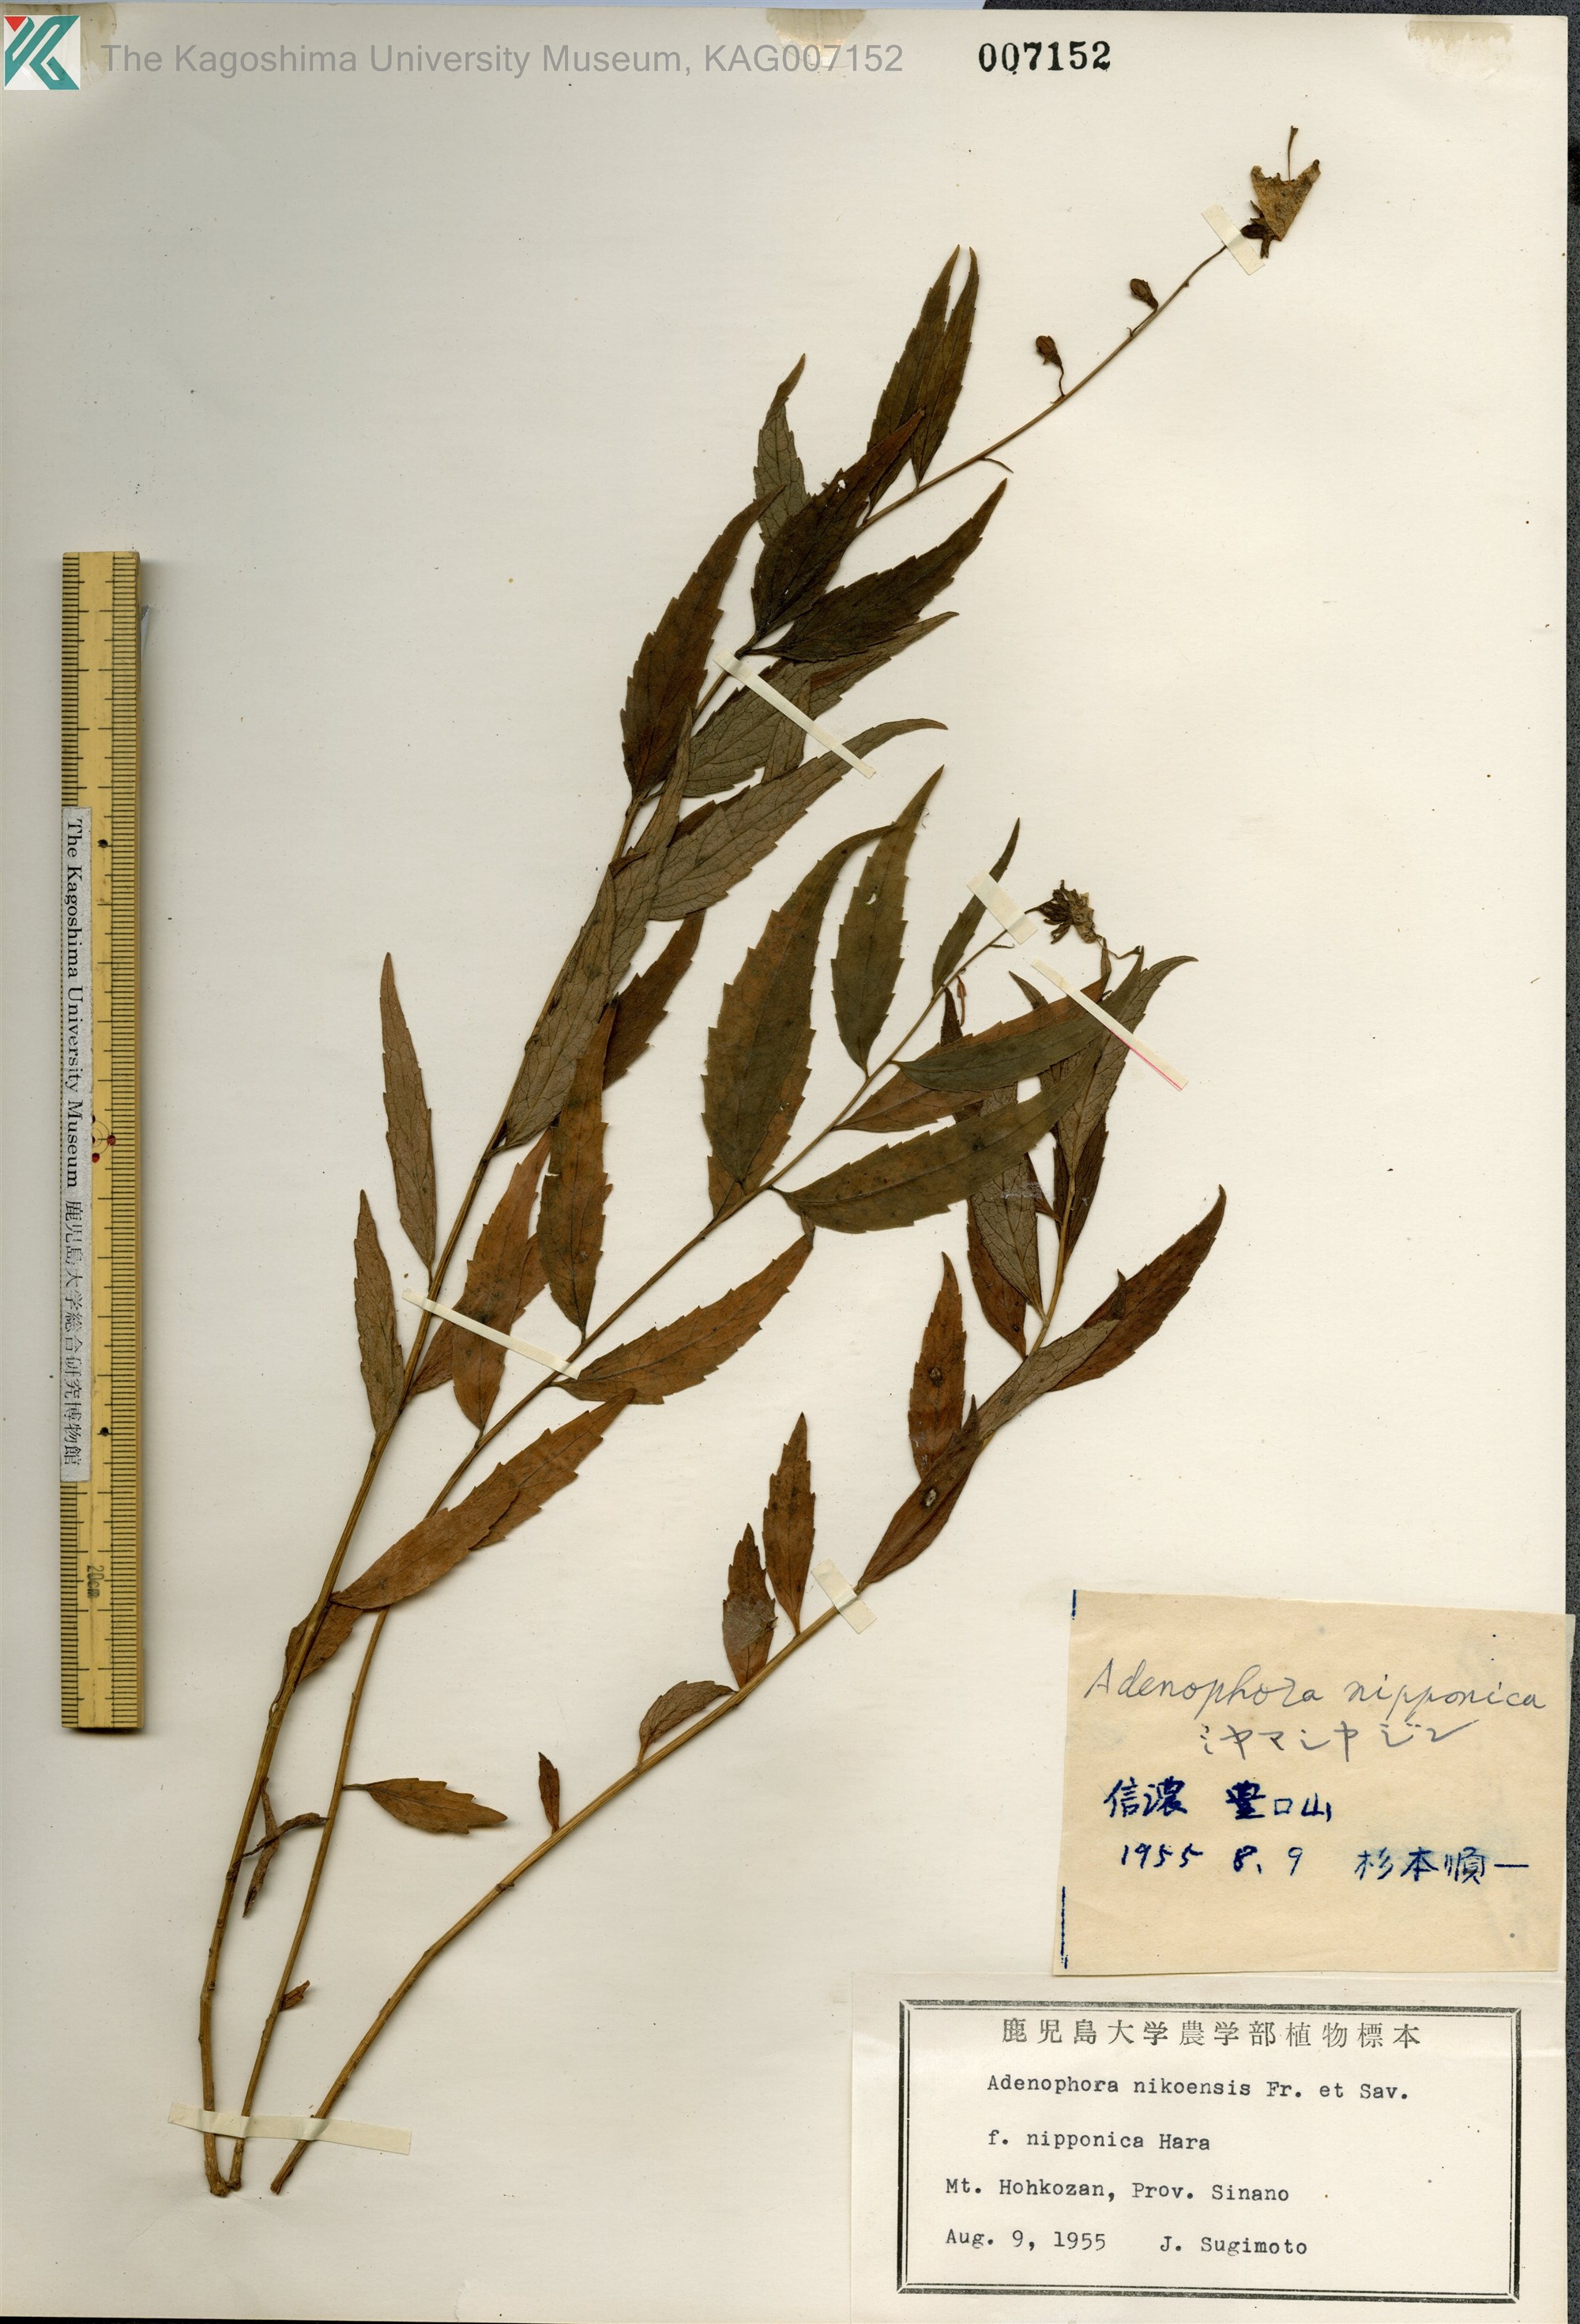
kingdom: Plantae
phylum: Tracheophyta
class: Magnoliopsida
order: Asterales
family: Campanulaceae
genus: Adenophora
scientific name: Adenophora nikoensis
